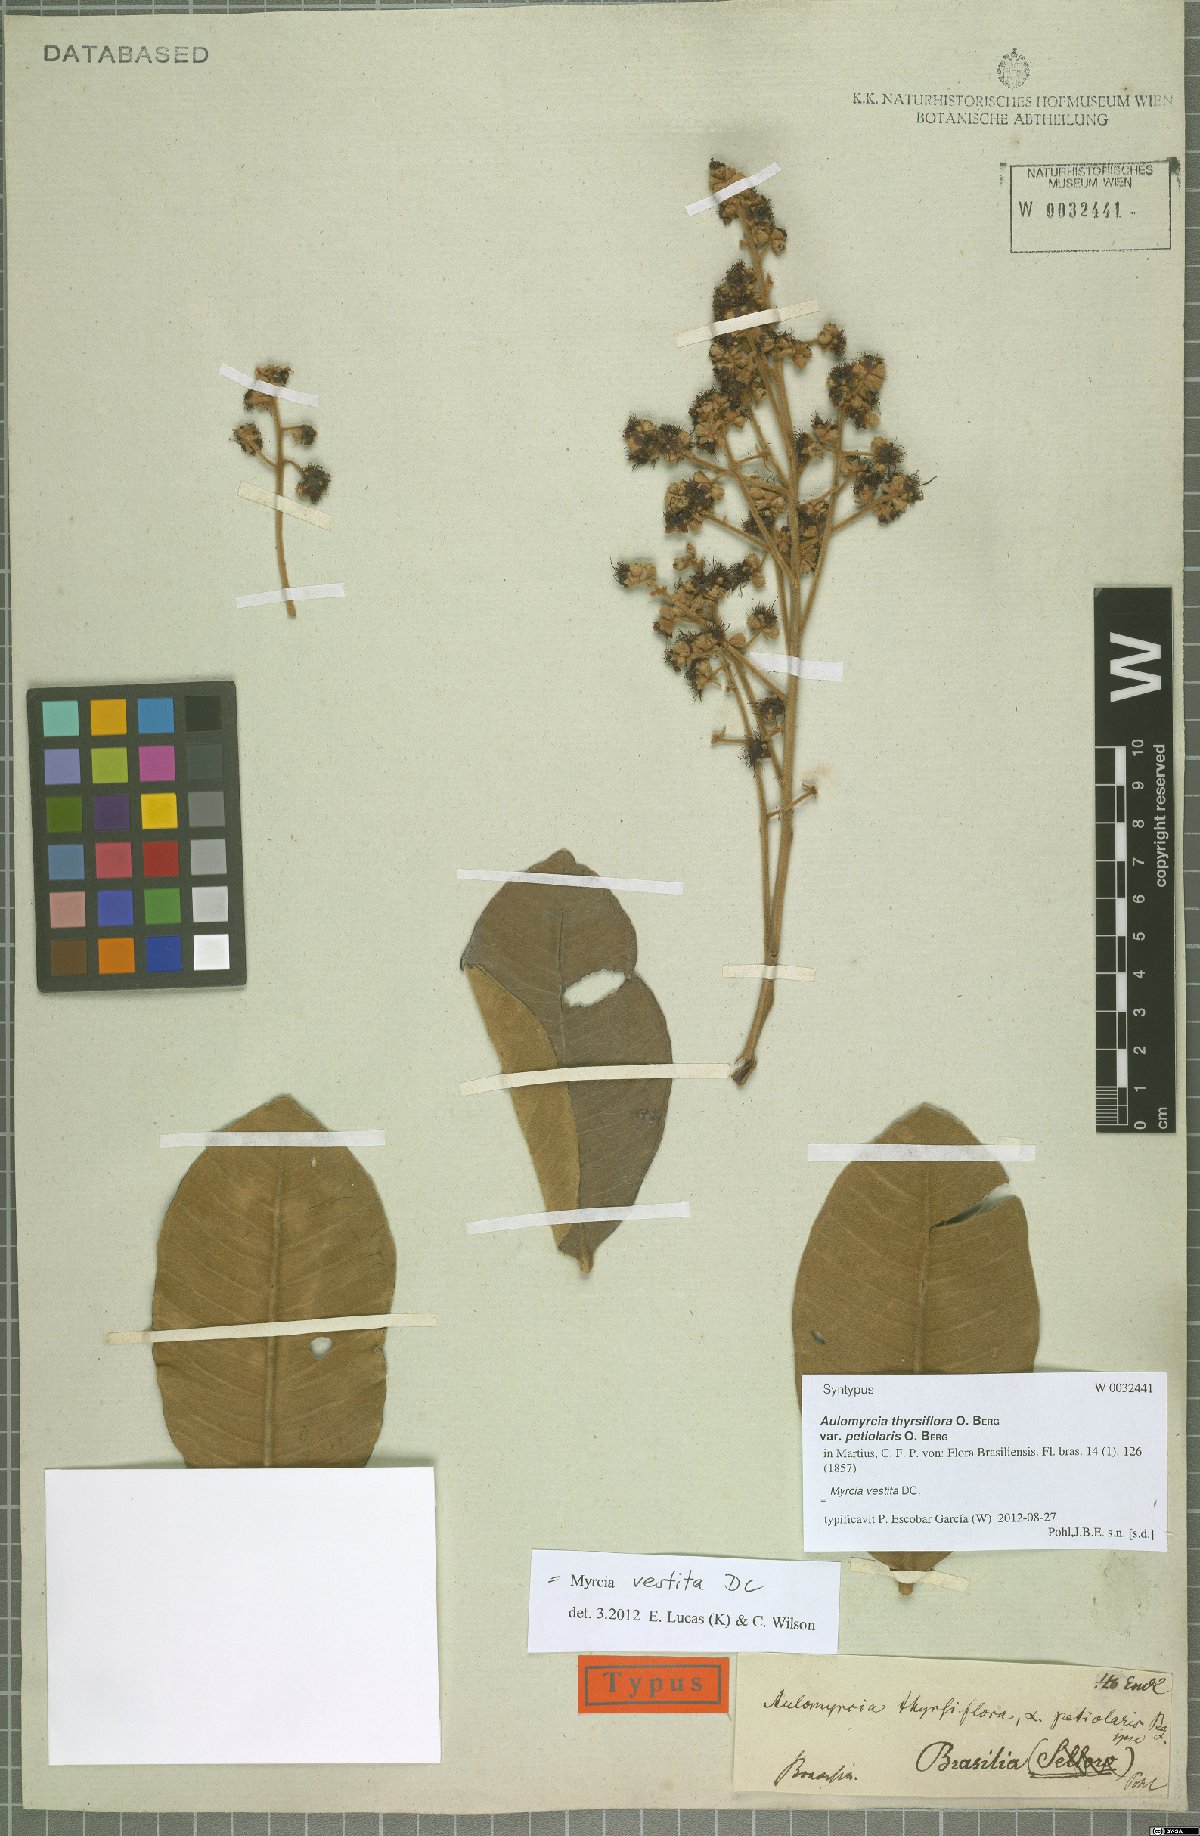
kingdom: Plantae
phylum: Tracheophyta
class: Magnoliopsida
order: Myrtales
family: Myrtaceae
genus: Myrcia
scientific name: Myrcia vestita
